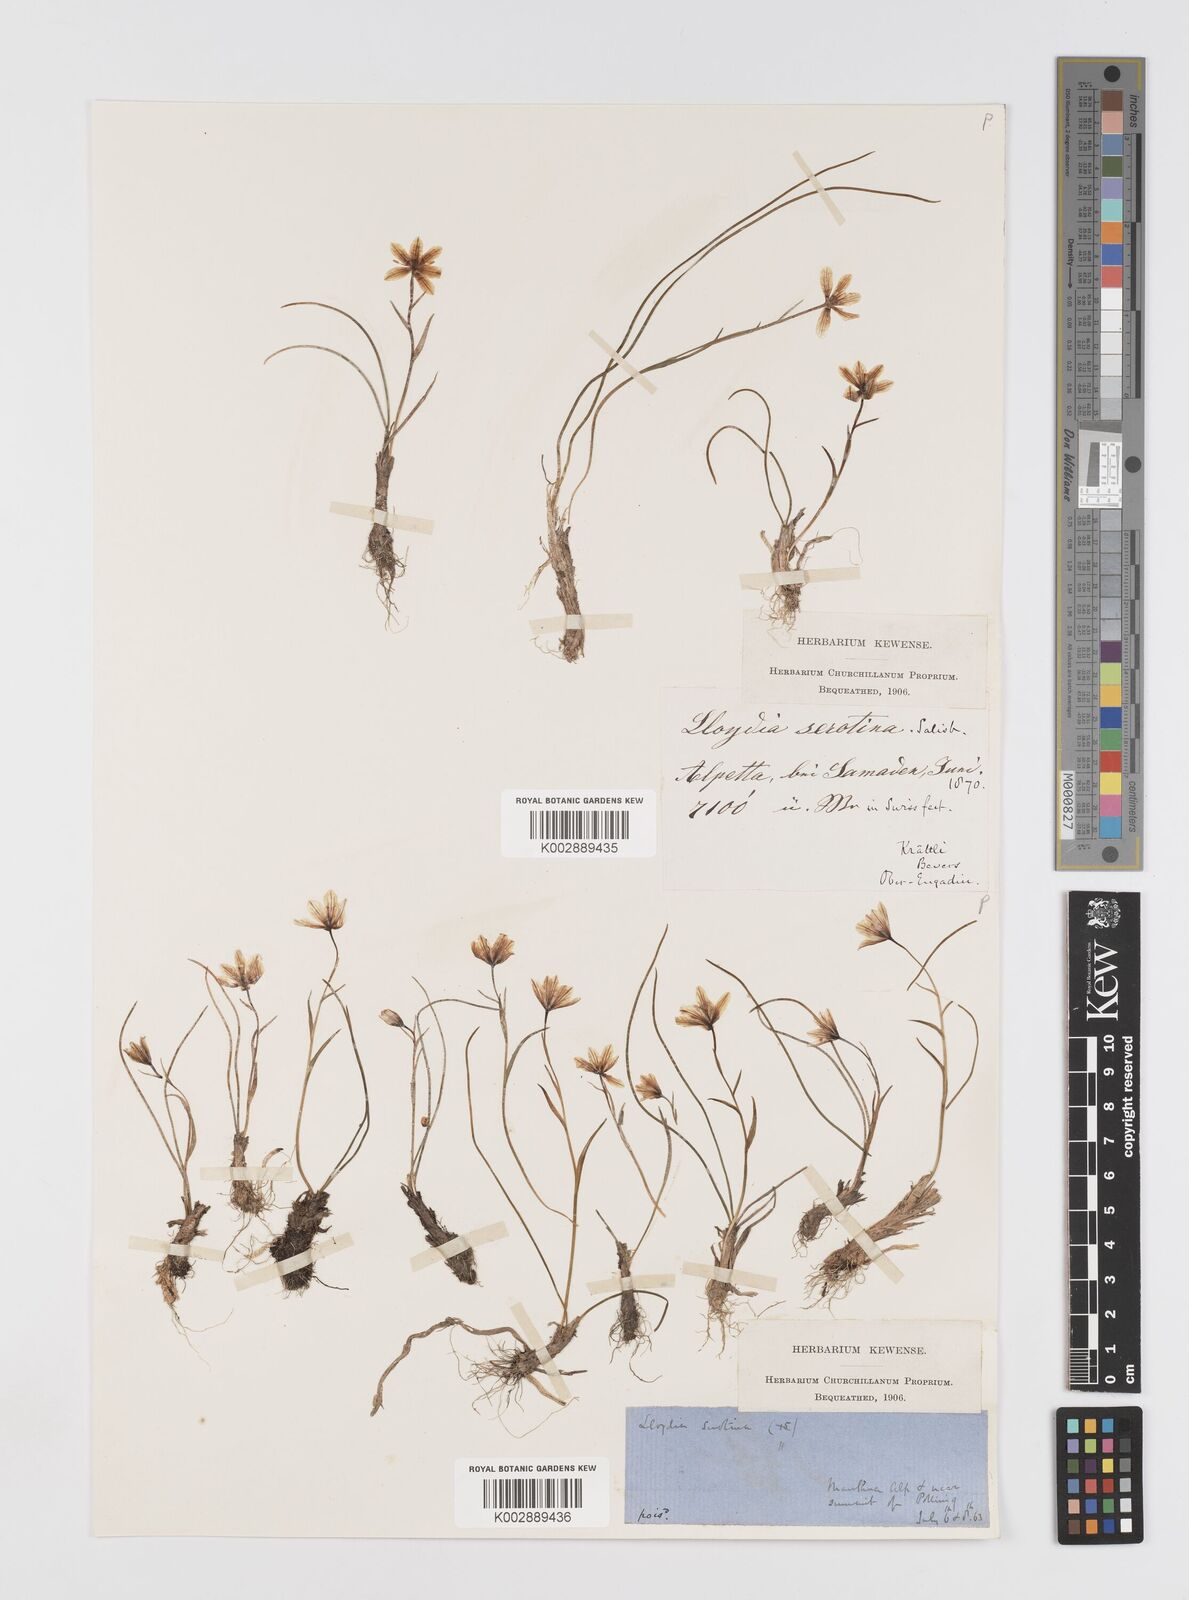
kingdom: Plantae
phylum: Tracheophyta
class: Liliopsida
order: Liliales
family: Liliaceae
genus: Gagea
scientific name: Gagea
